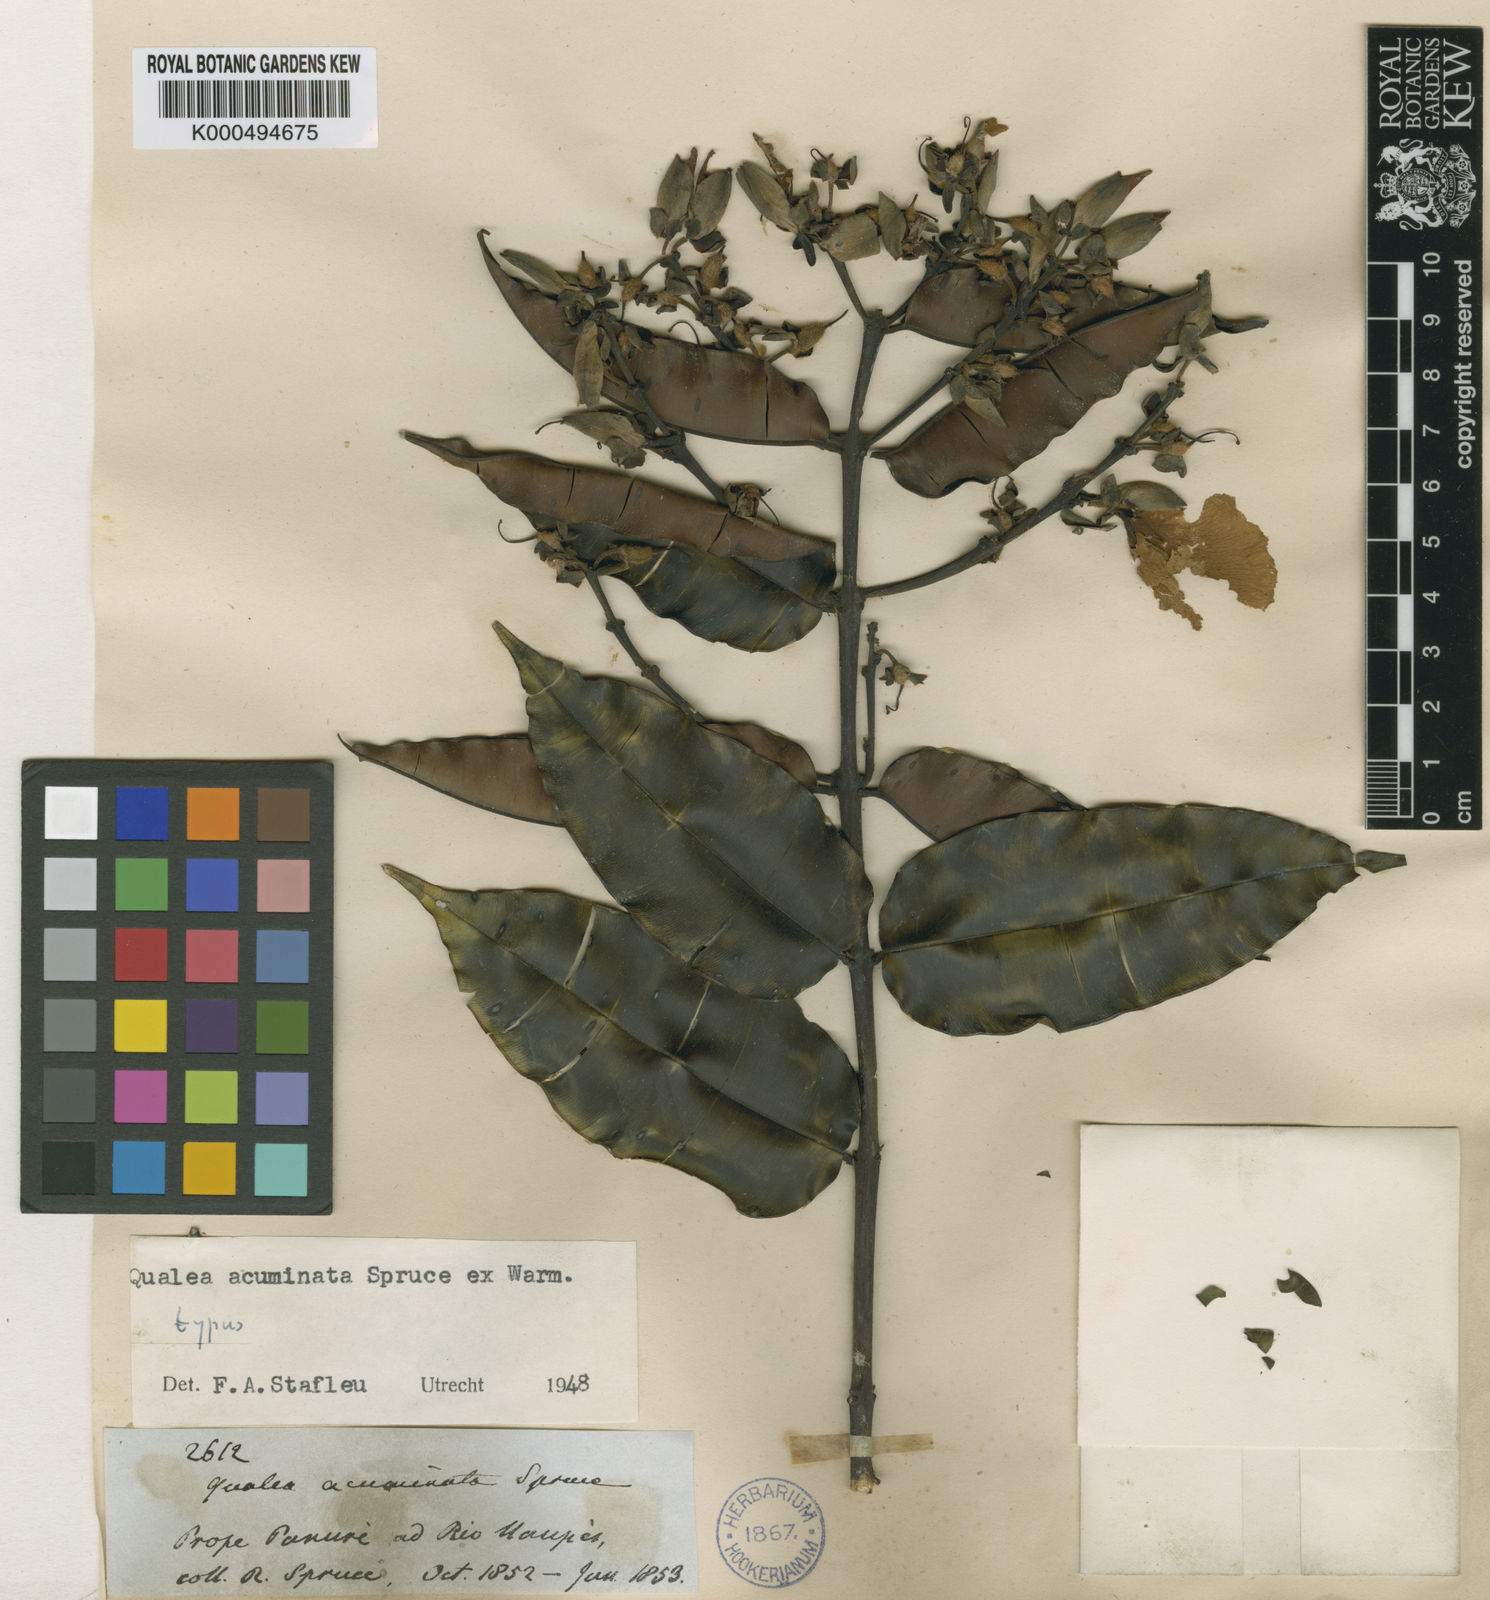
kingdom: Plantae
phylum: Tracheophyta
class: Magnoliopsida
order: Myrtales
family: Vochysiaceae
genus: Qualea
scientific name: Qualea acuminata
